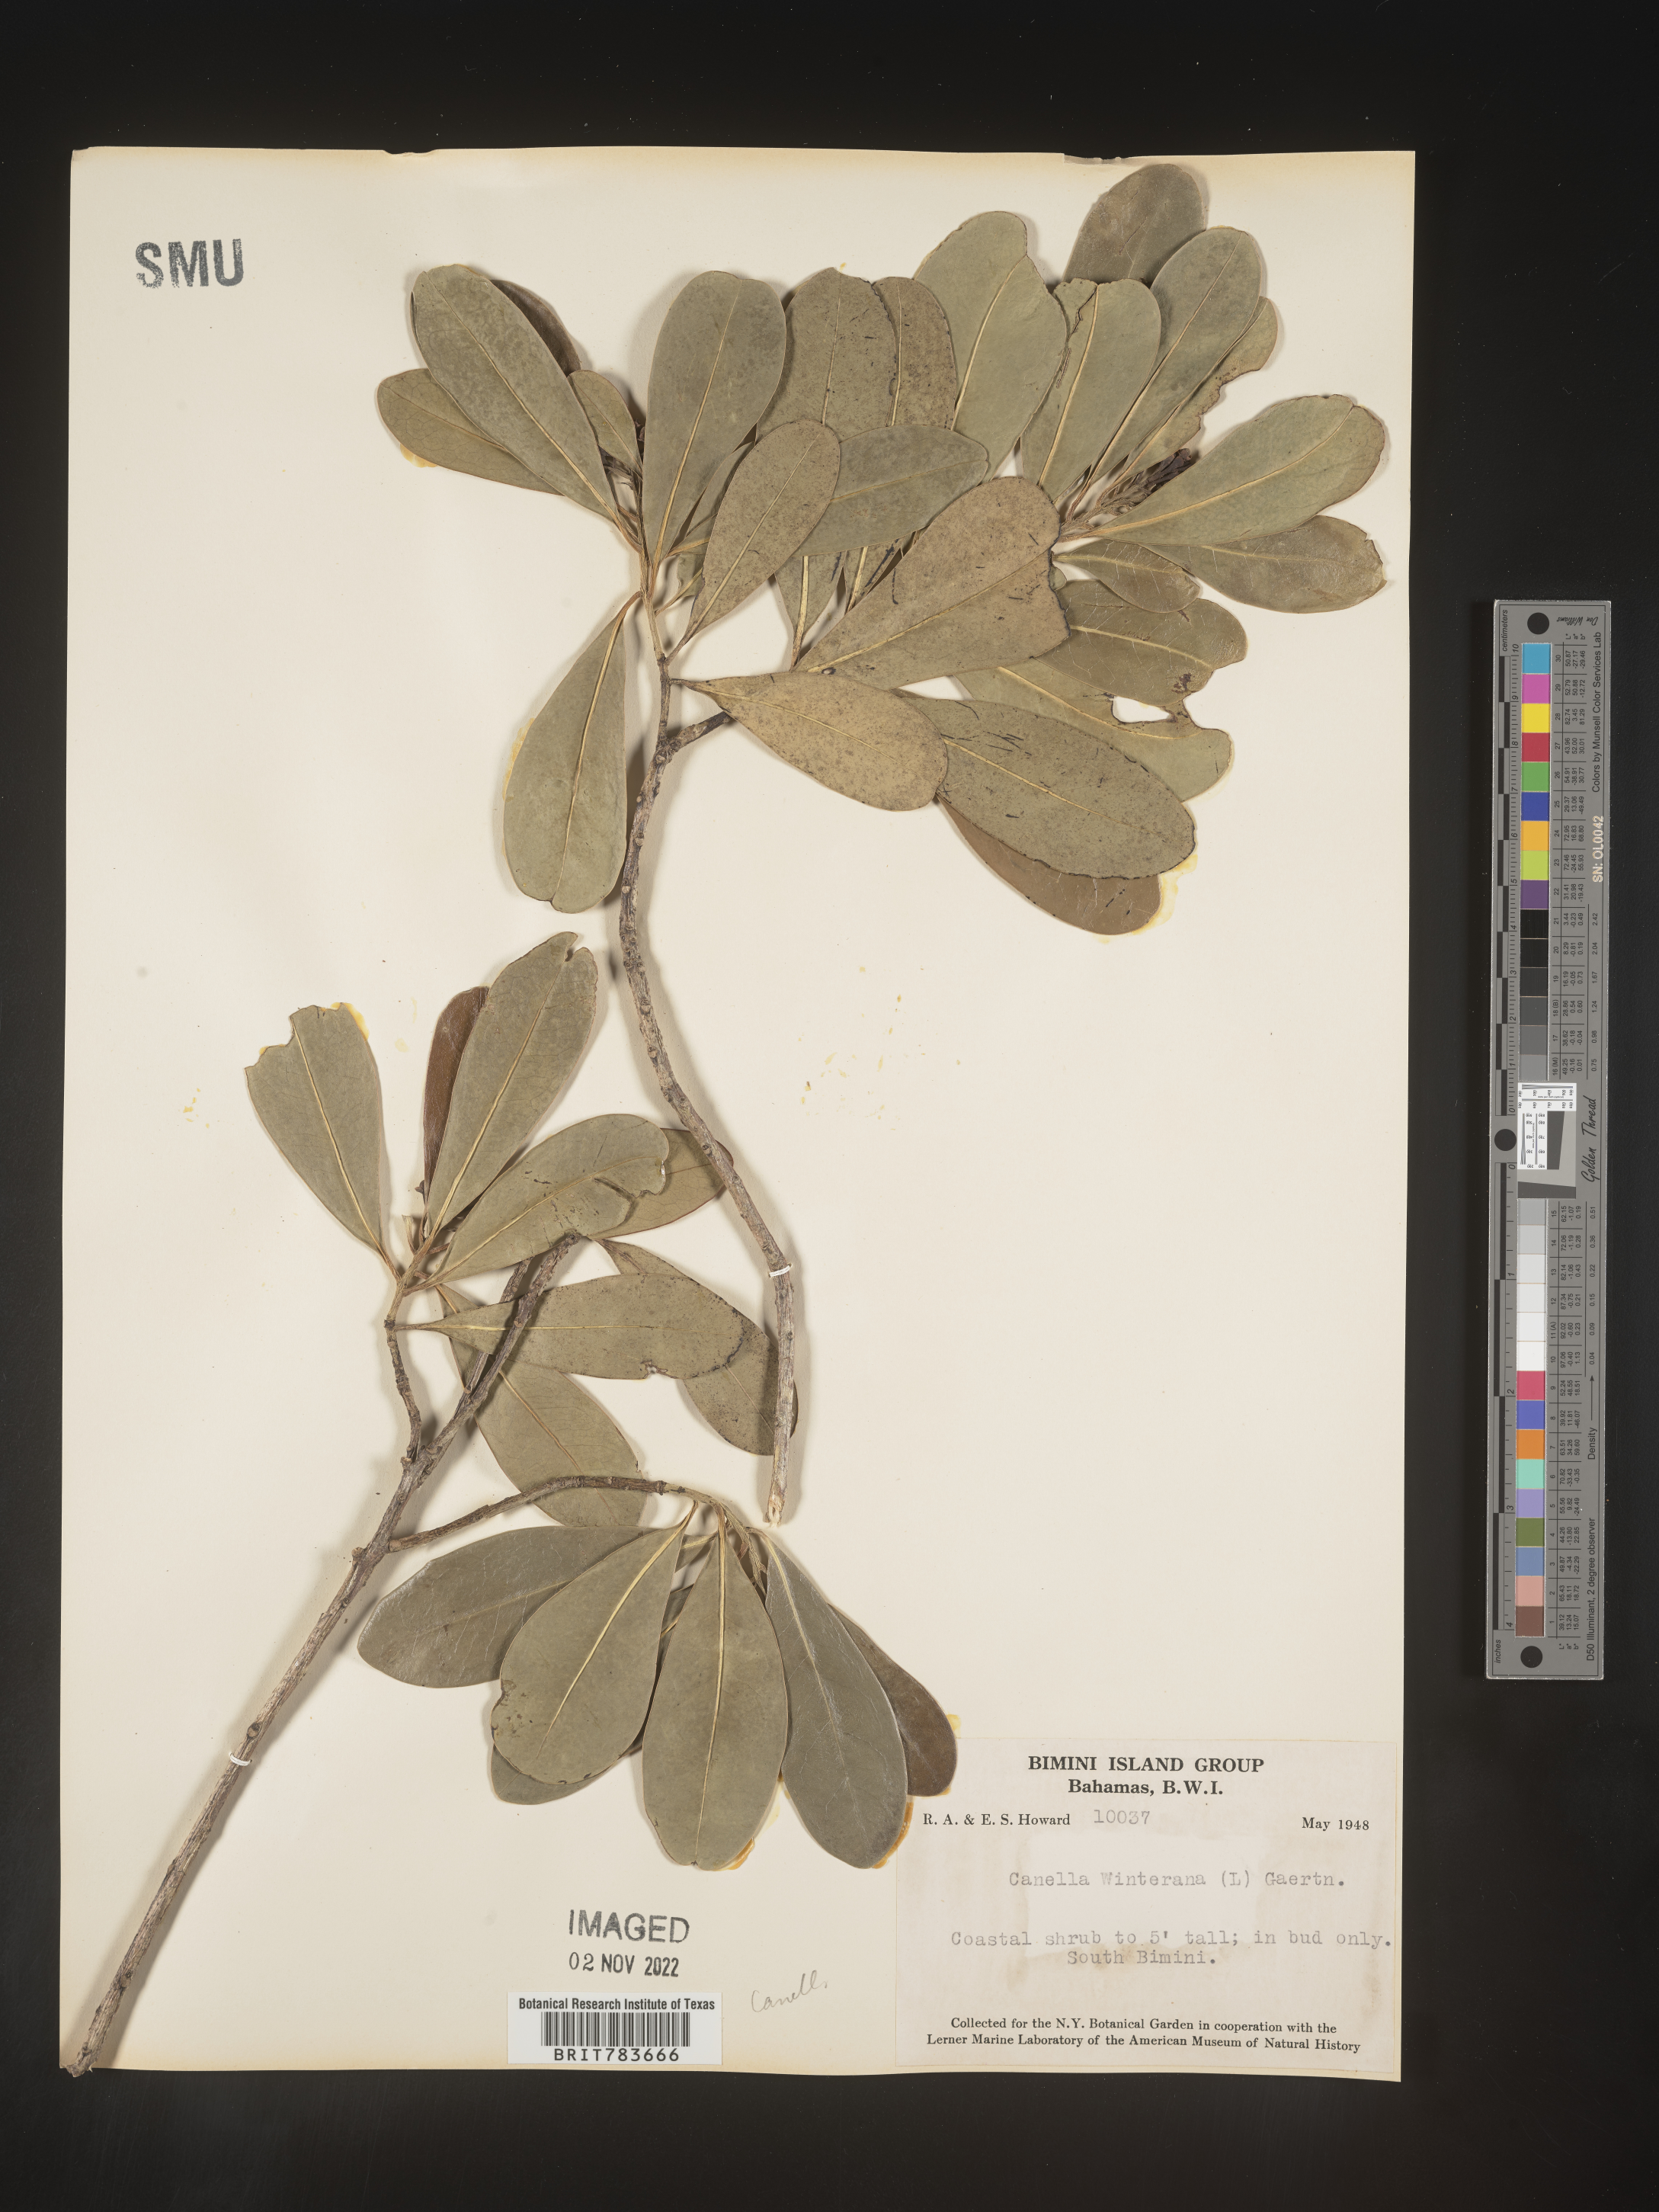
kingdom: Plantae
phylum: Tracheophyta
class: Magnoliopsida
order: Canellales
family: Canellaceae
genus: Canella
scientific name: Canella
